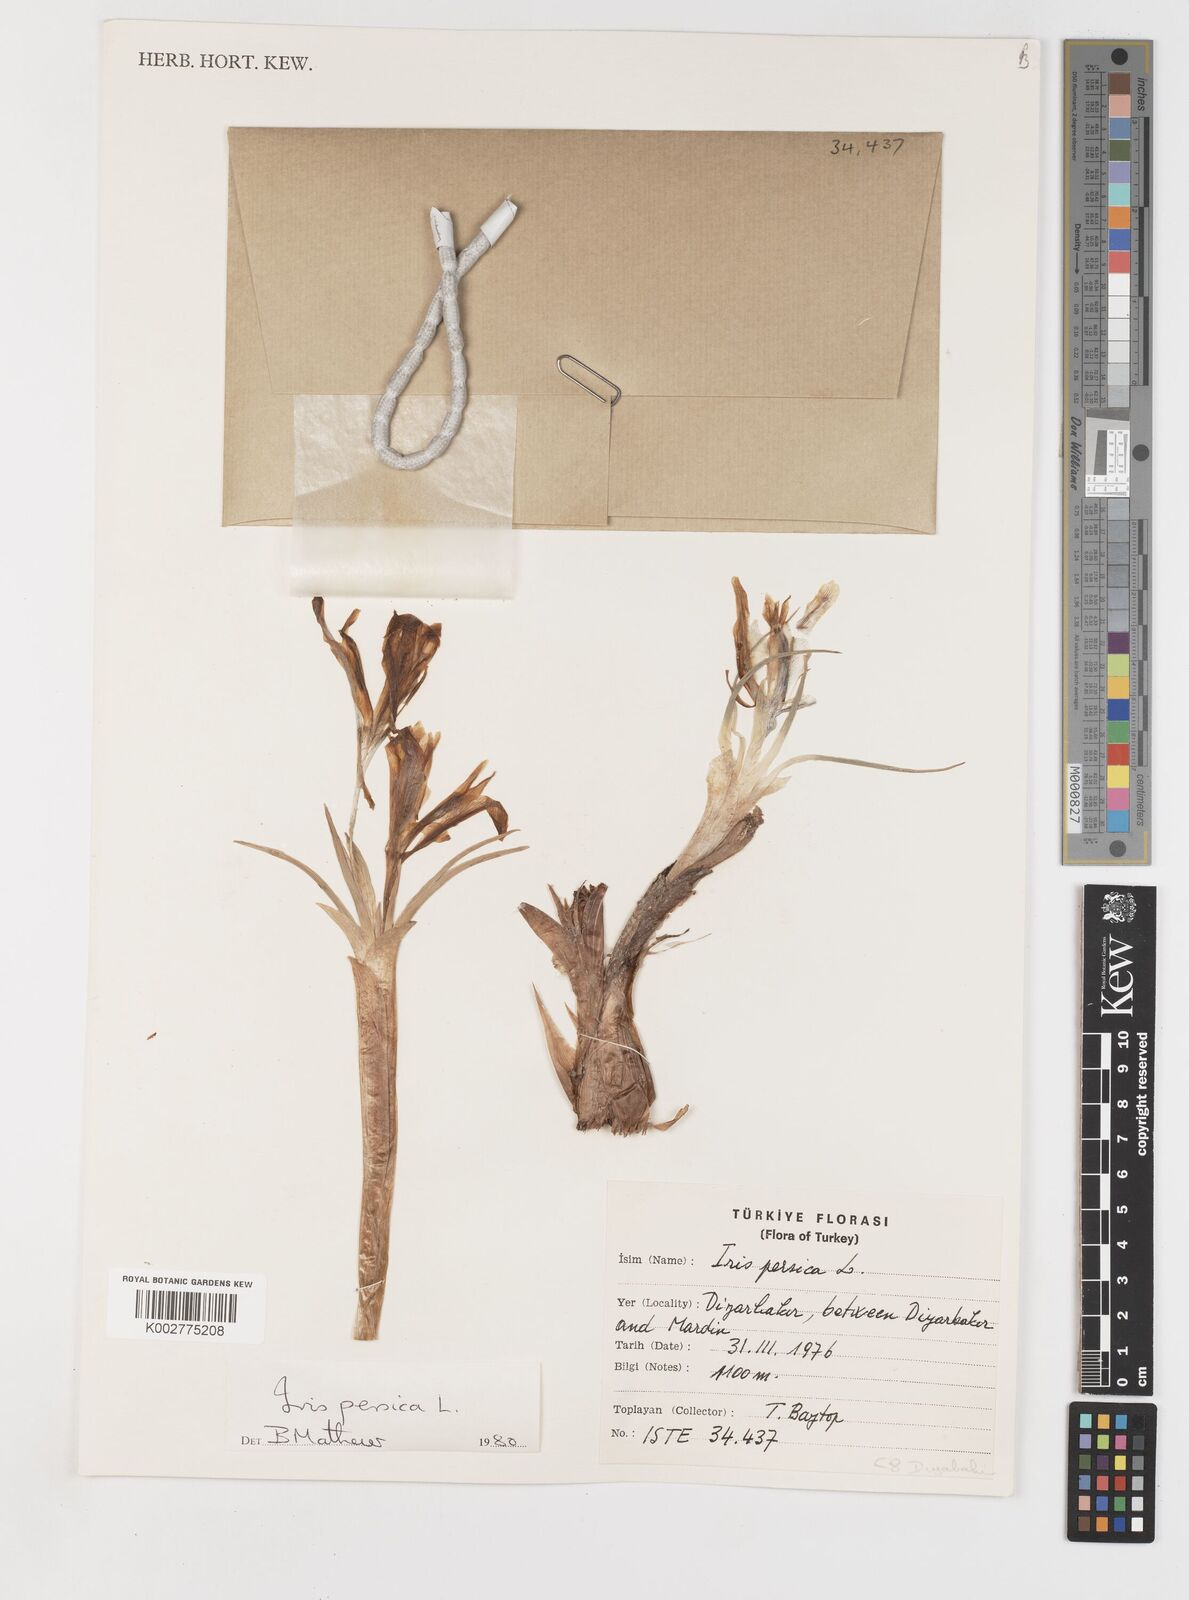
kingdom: Plantae
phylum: Tracheophyta
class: Liliopsida
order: Asparagales
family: Iridaceae
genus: Iris
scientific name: Iris persica
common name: Persian iris
